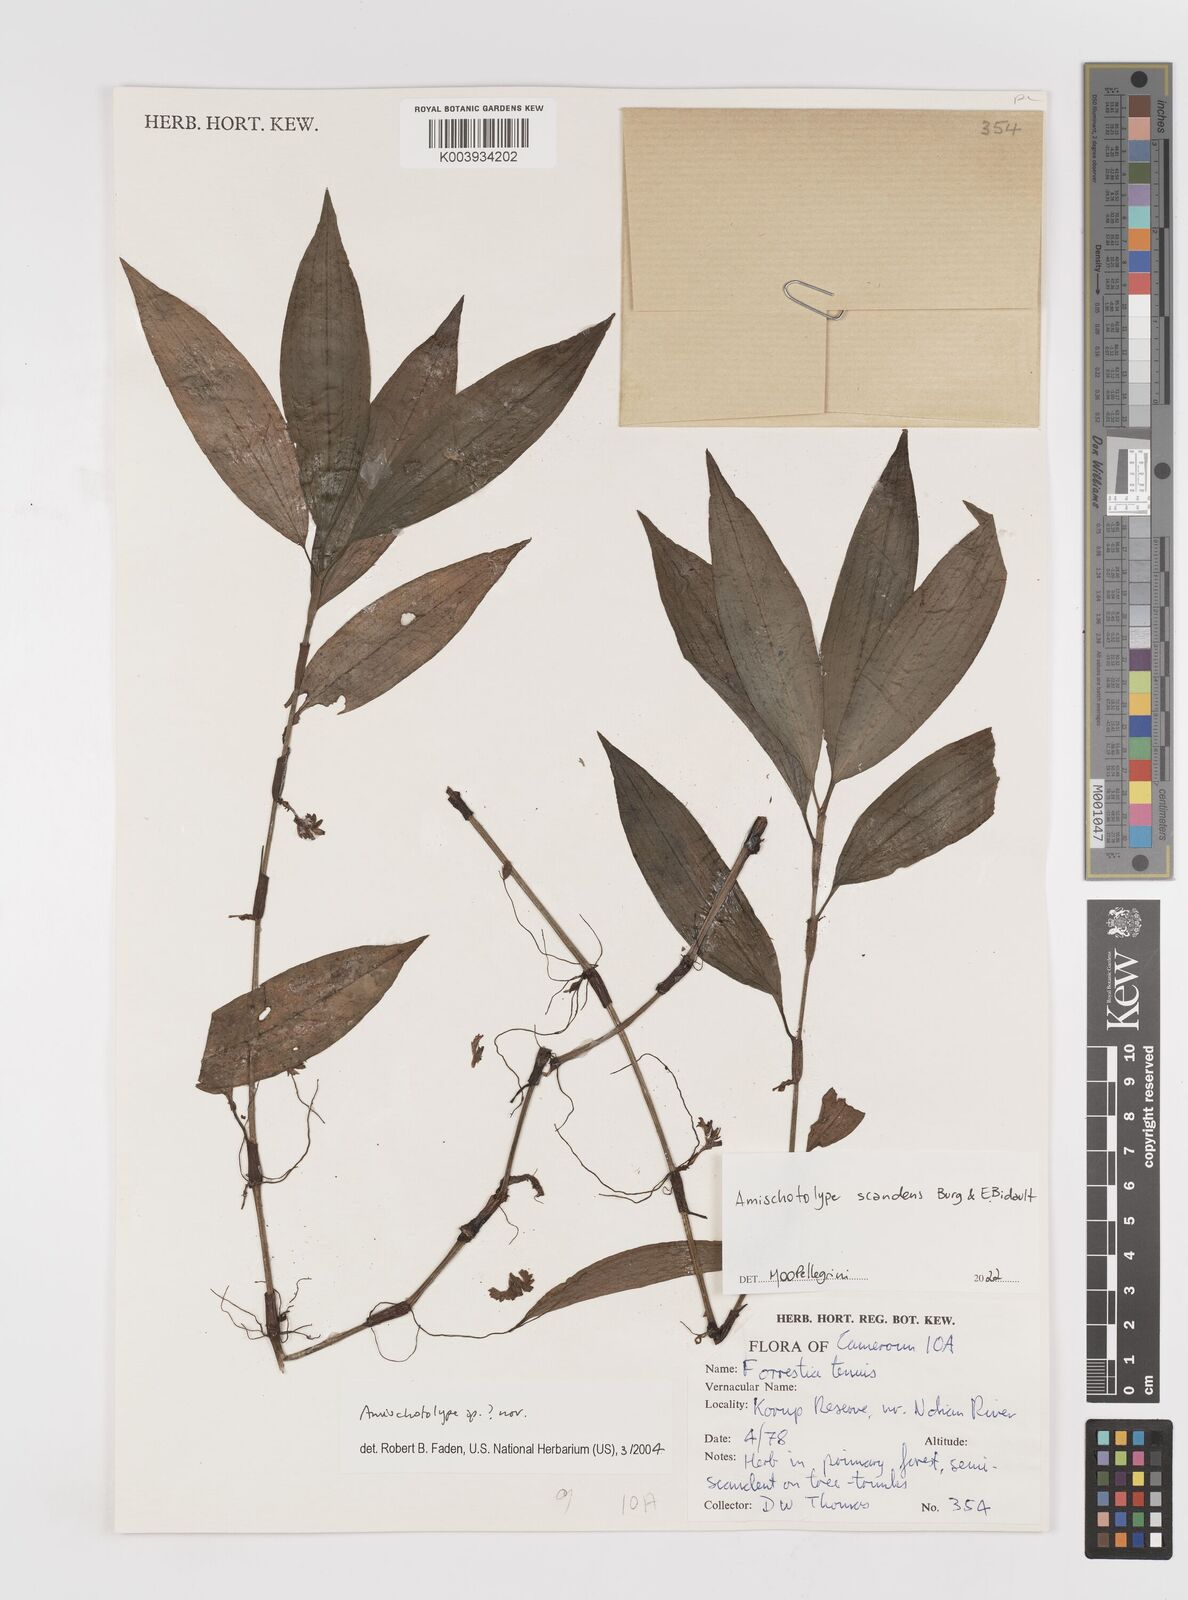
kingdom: Plantae
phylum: Tracheophyta
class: Liliopsida
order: Commelinales
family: Commelinaceae
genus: Amischotolype
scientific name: Amischotolype
